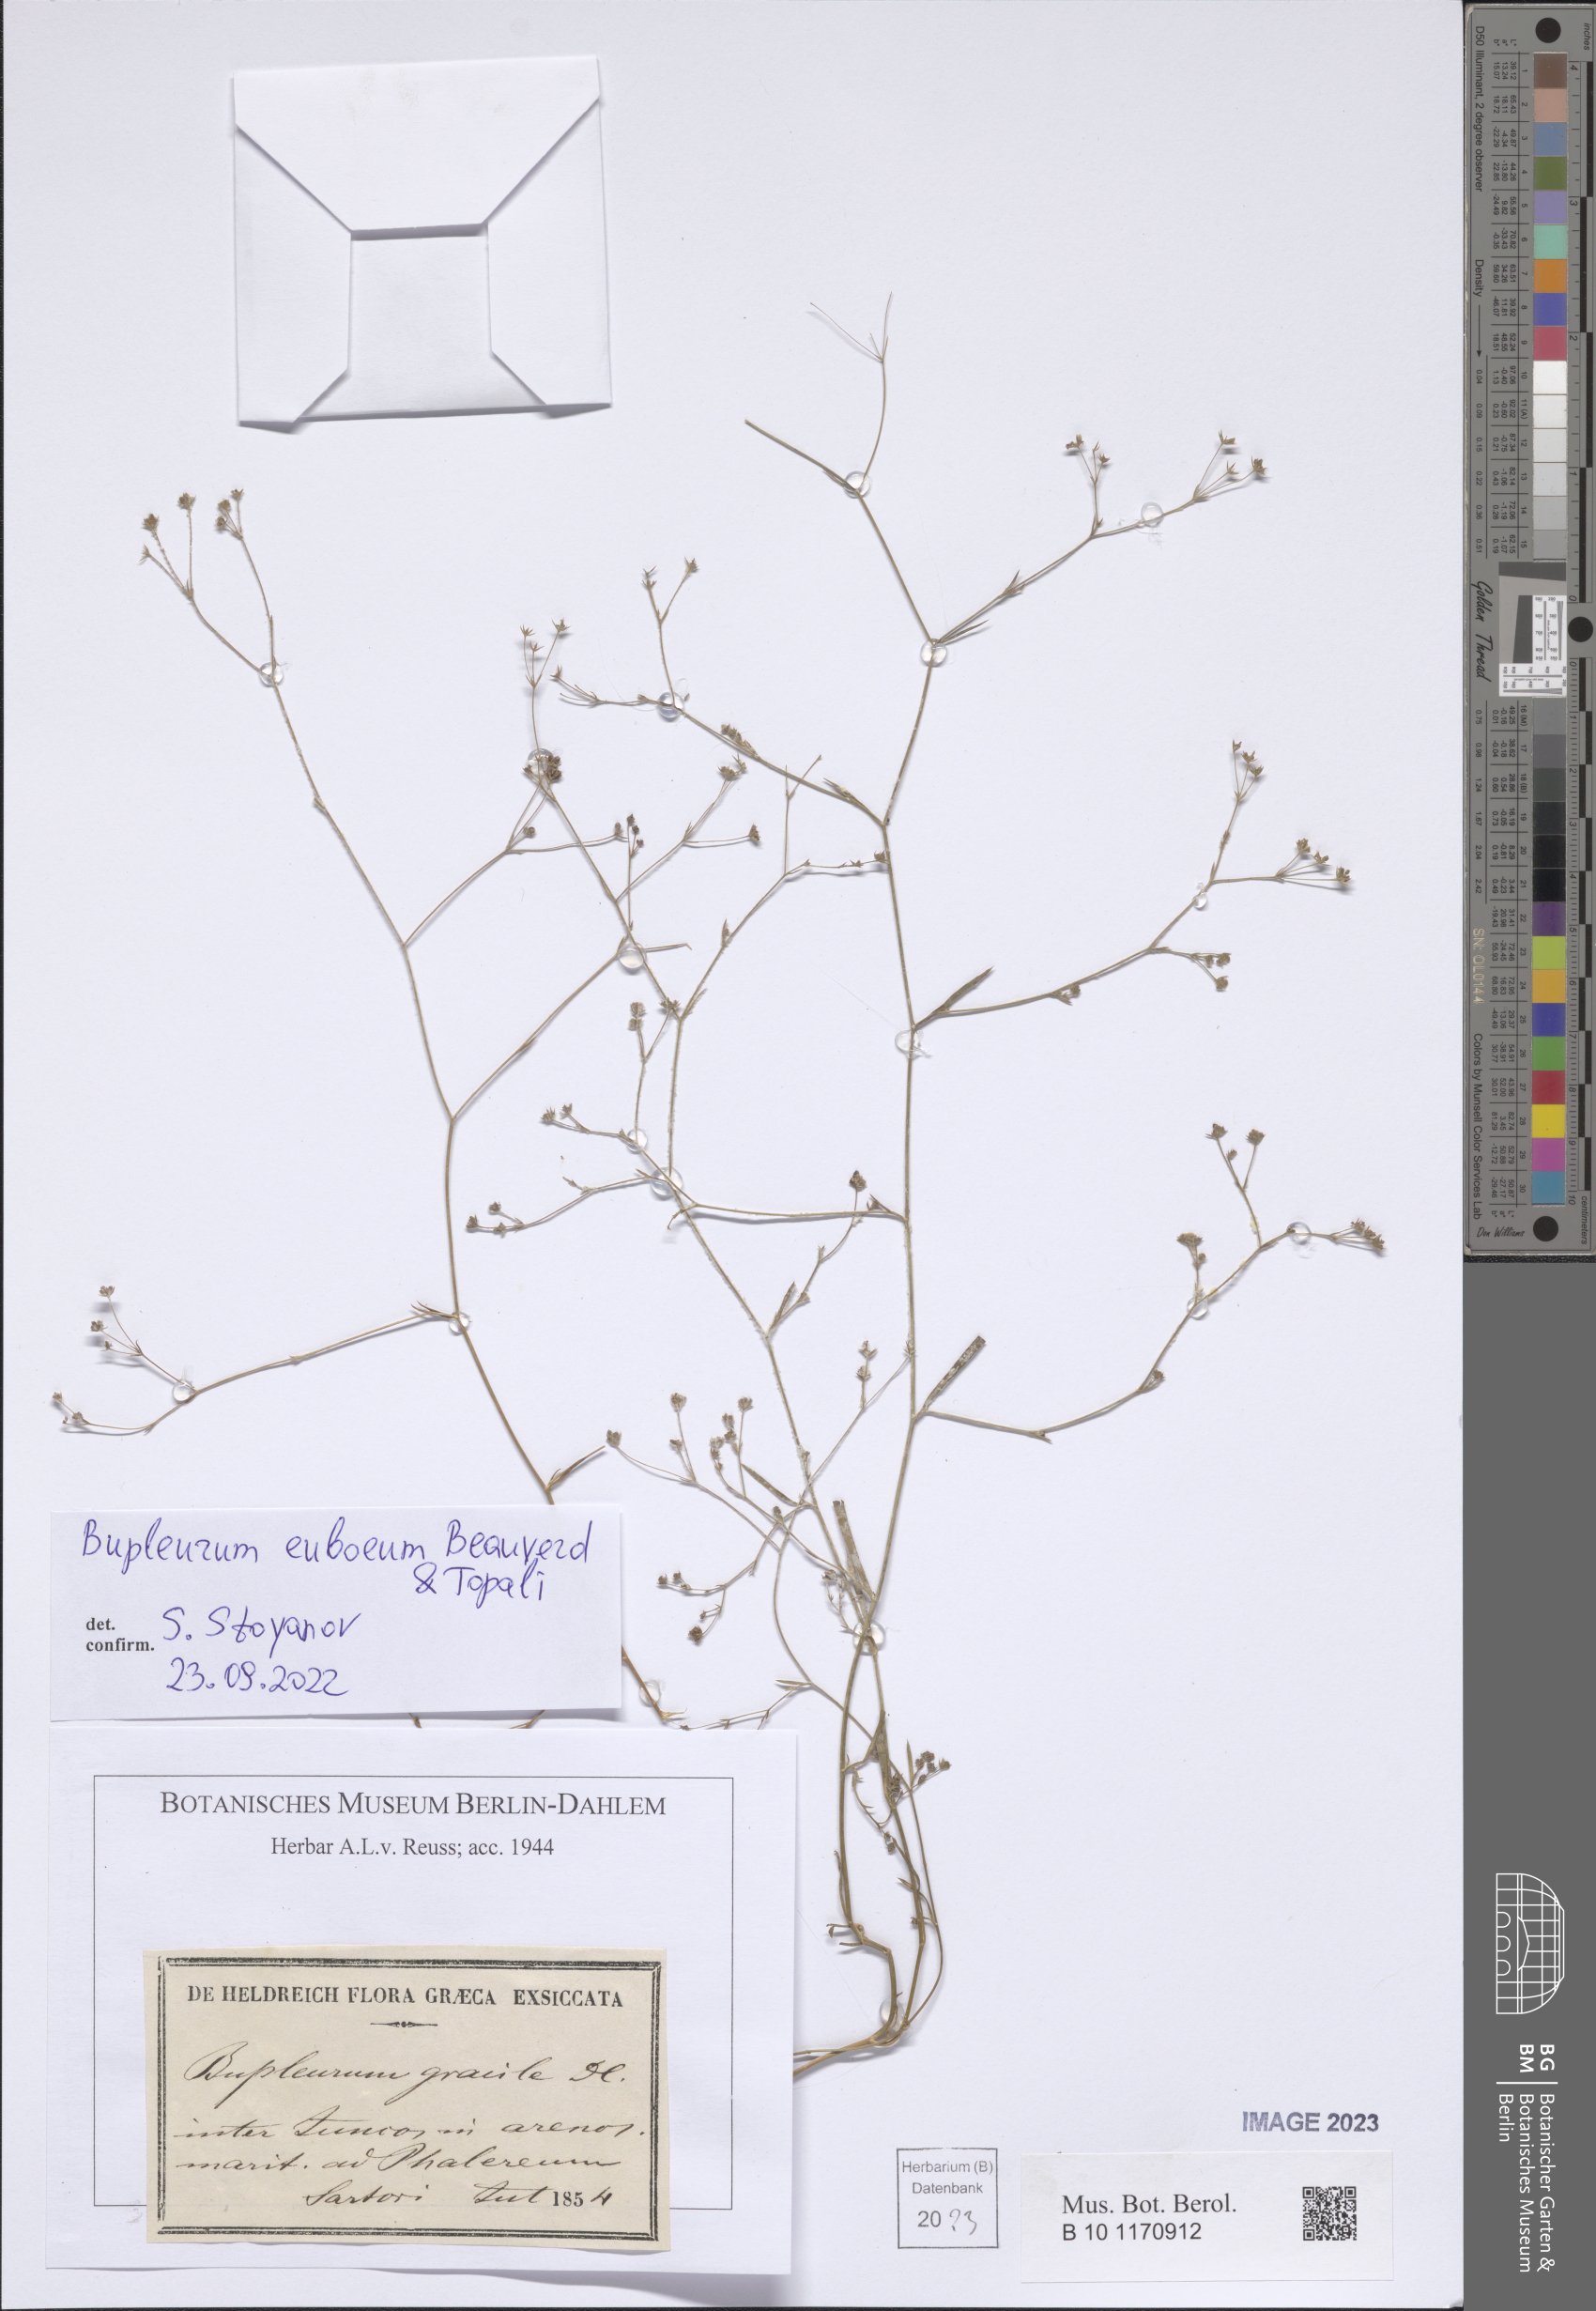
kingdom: Plantae
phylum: Tracheophyta
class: Magnoliopsida
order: Apiales
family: Apiaceae
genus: Bupleurum
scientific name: Bupleurum euboeum
